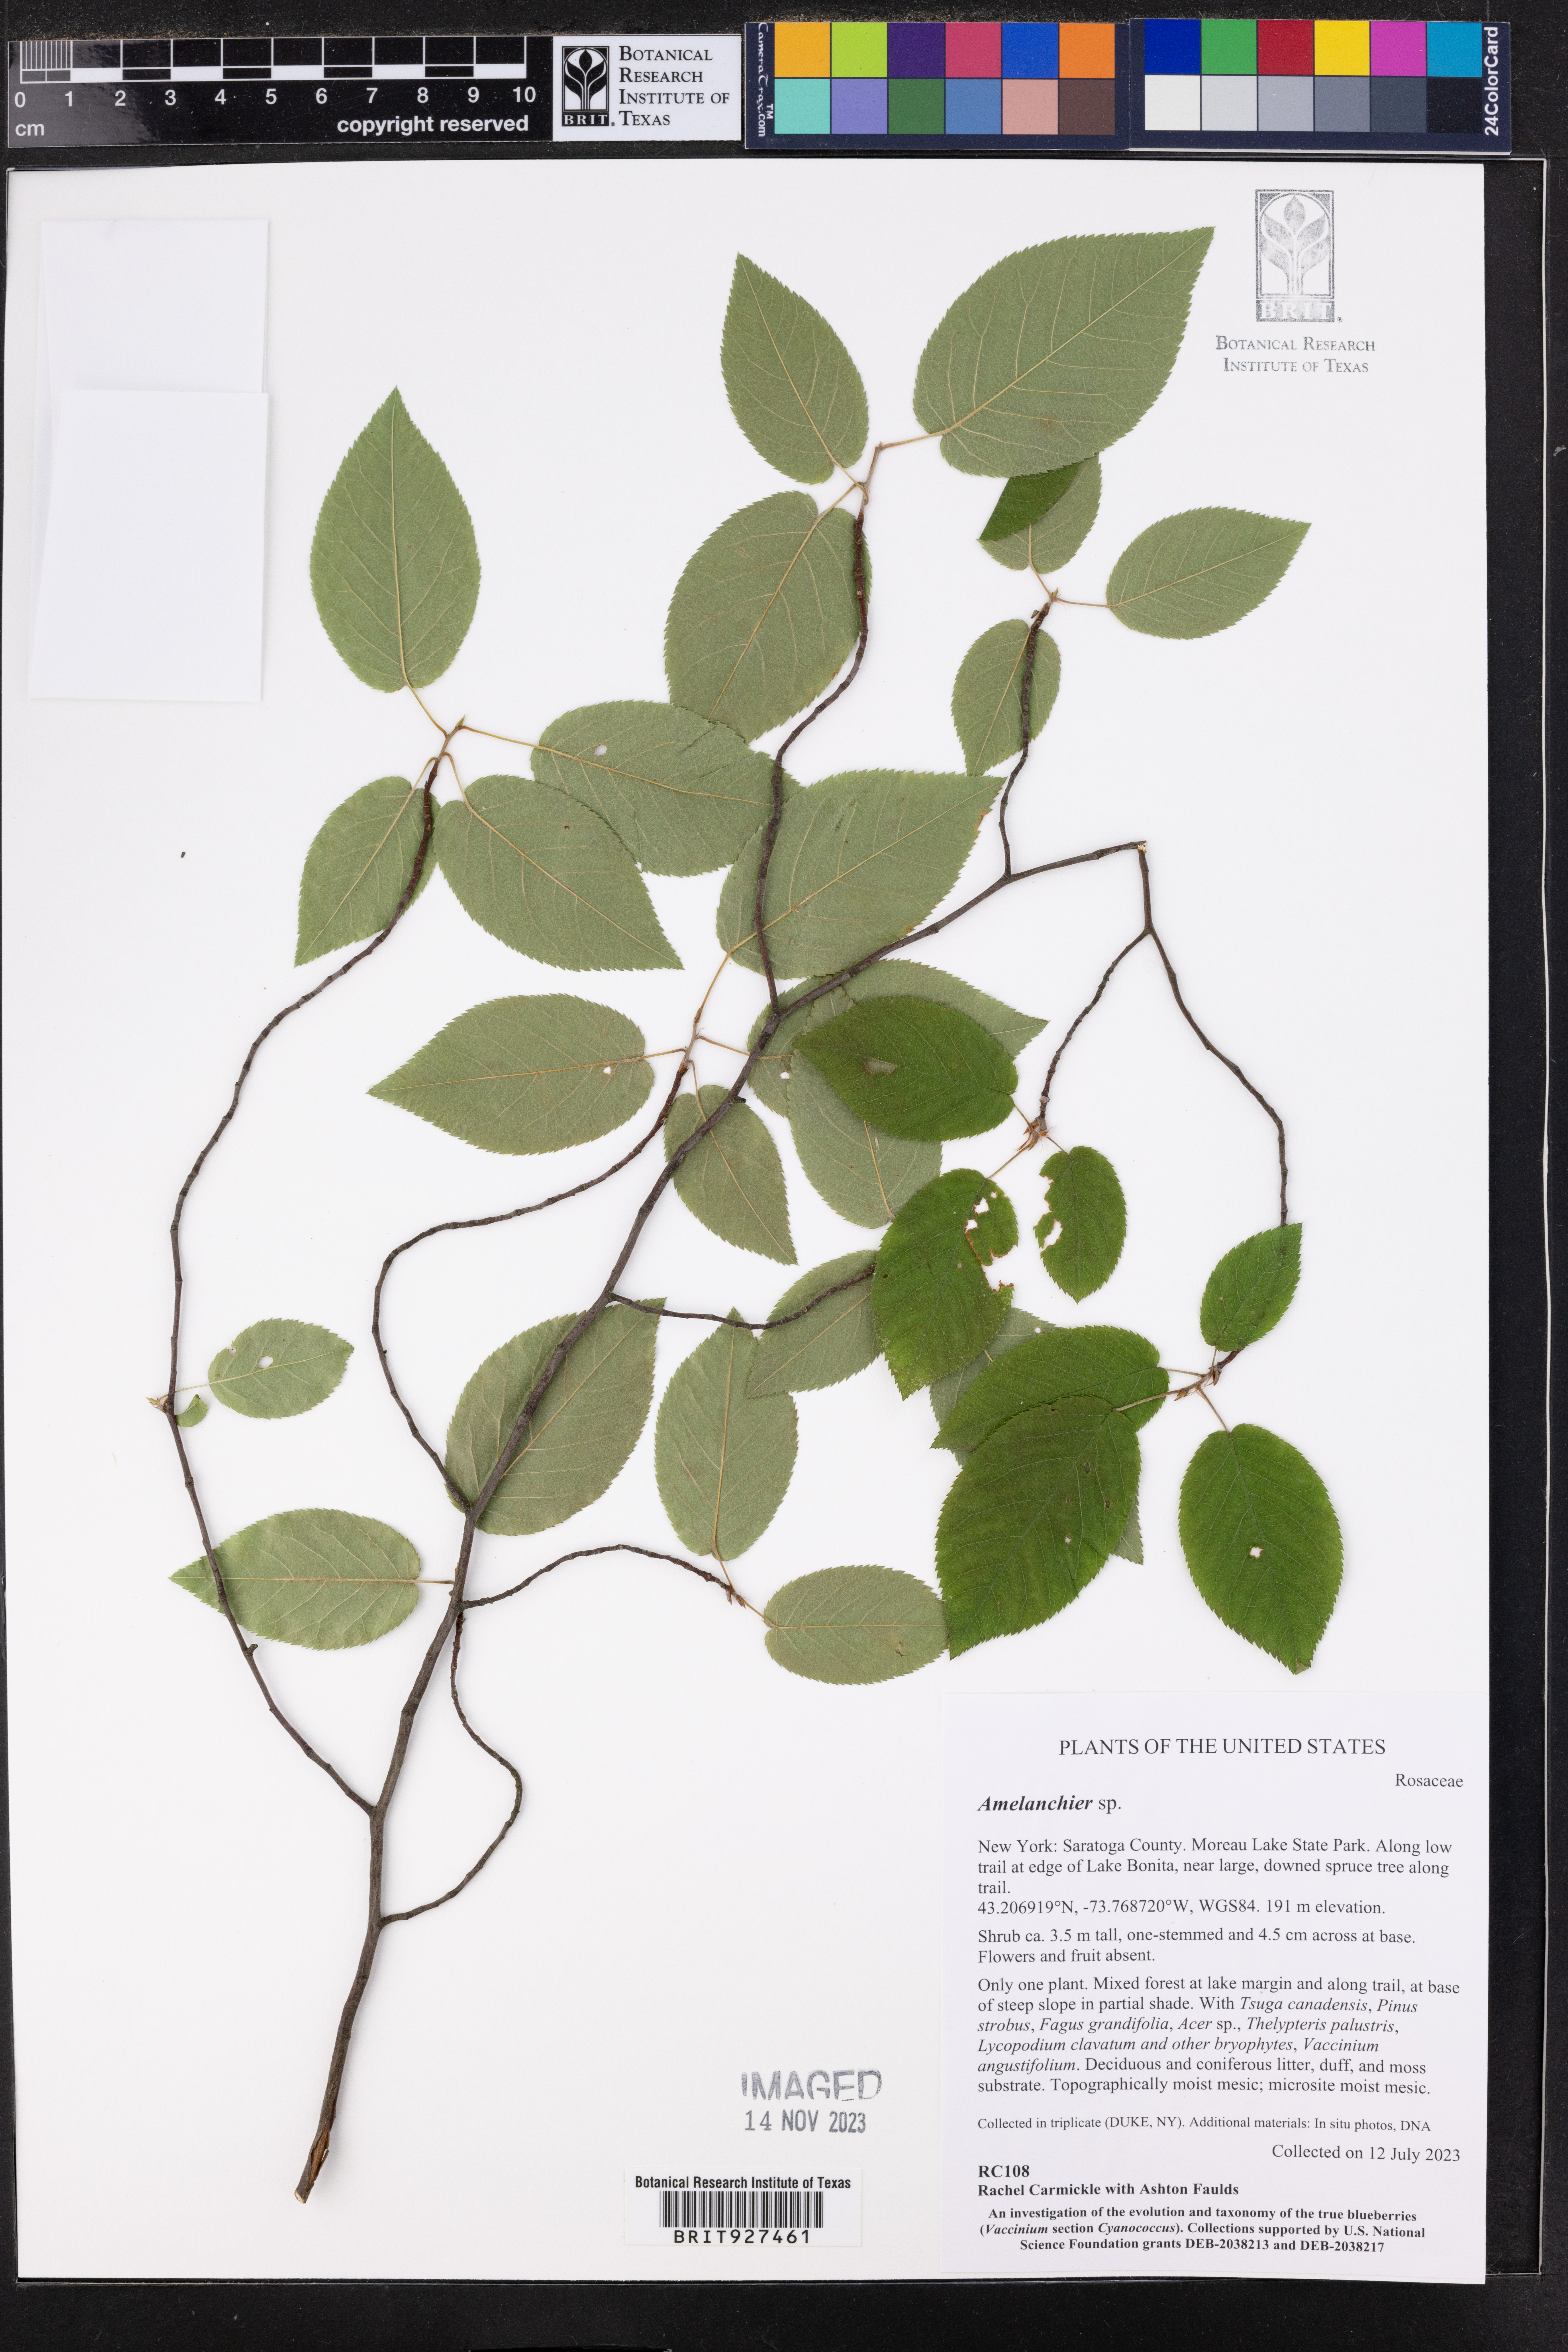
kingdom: Plantae
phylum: Tracheophyta
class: Magnoliopsida
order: Rosales
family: Rosaceae
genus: Amelanchier
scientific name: Amelanchier
